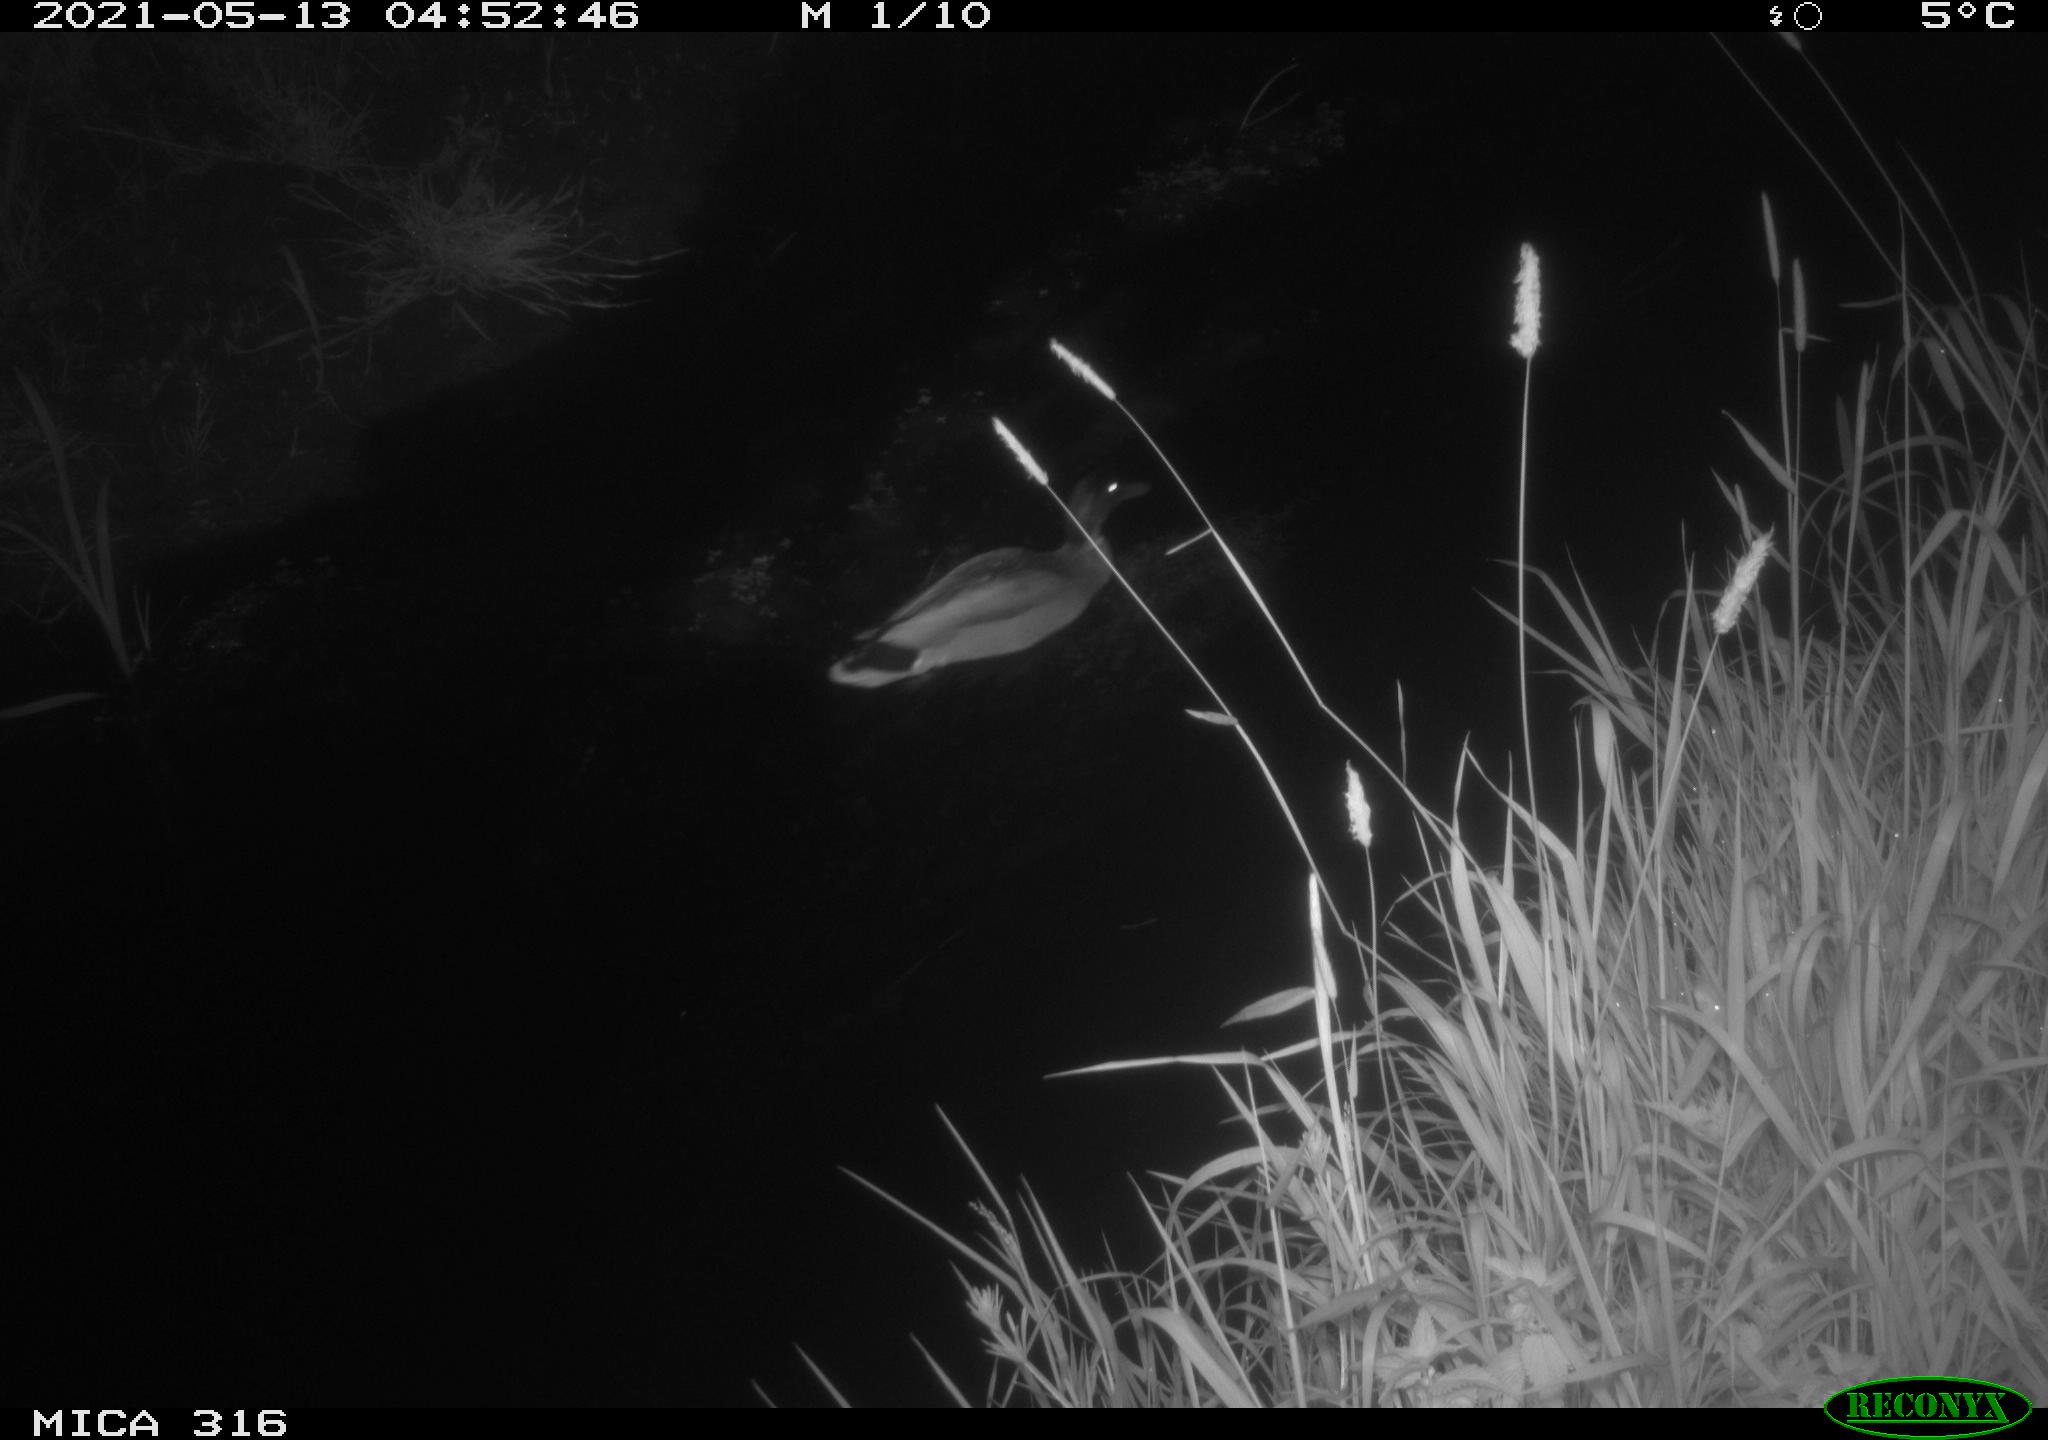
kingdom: Animalia
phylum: Chordata
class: Aves
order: Anseriformes
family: Anatidae
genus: Anas
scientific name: Anas platyrhynchos
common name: Mallard
